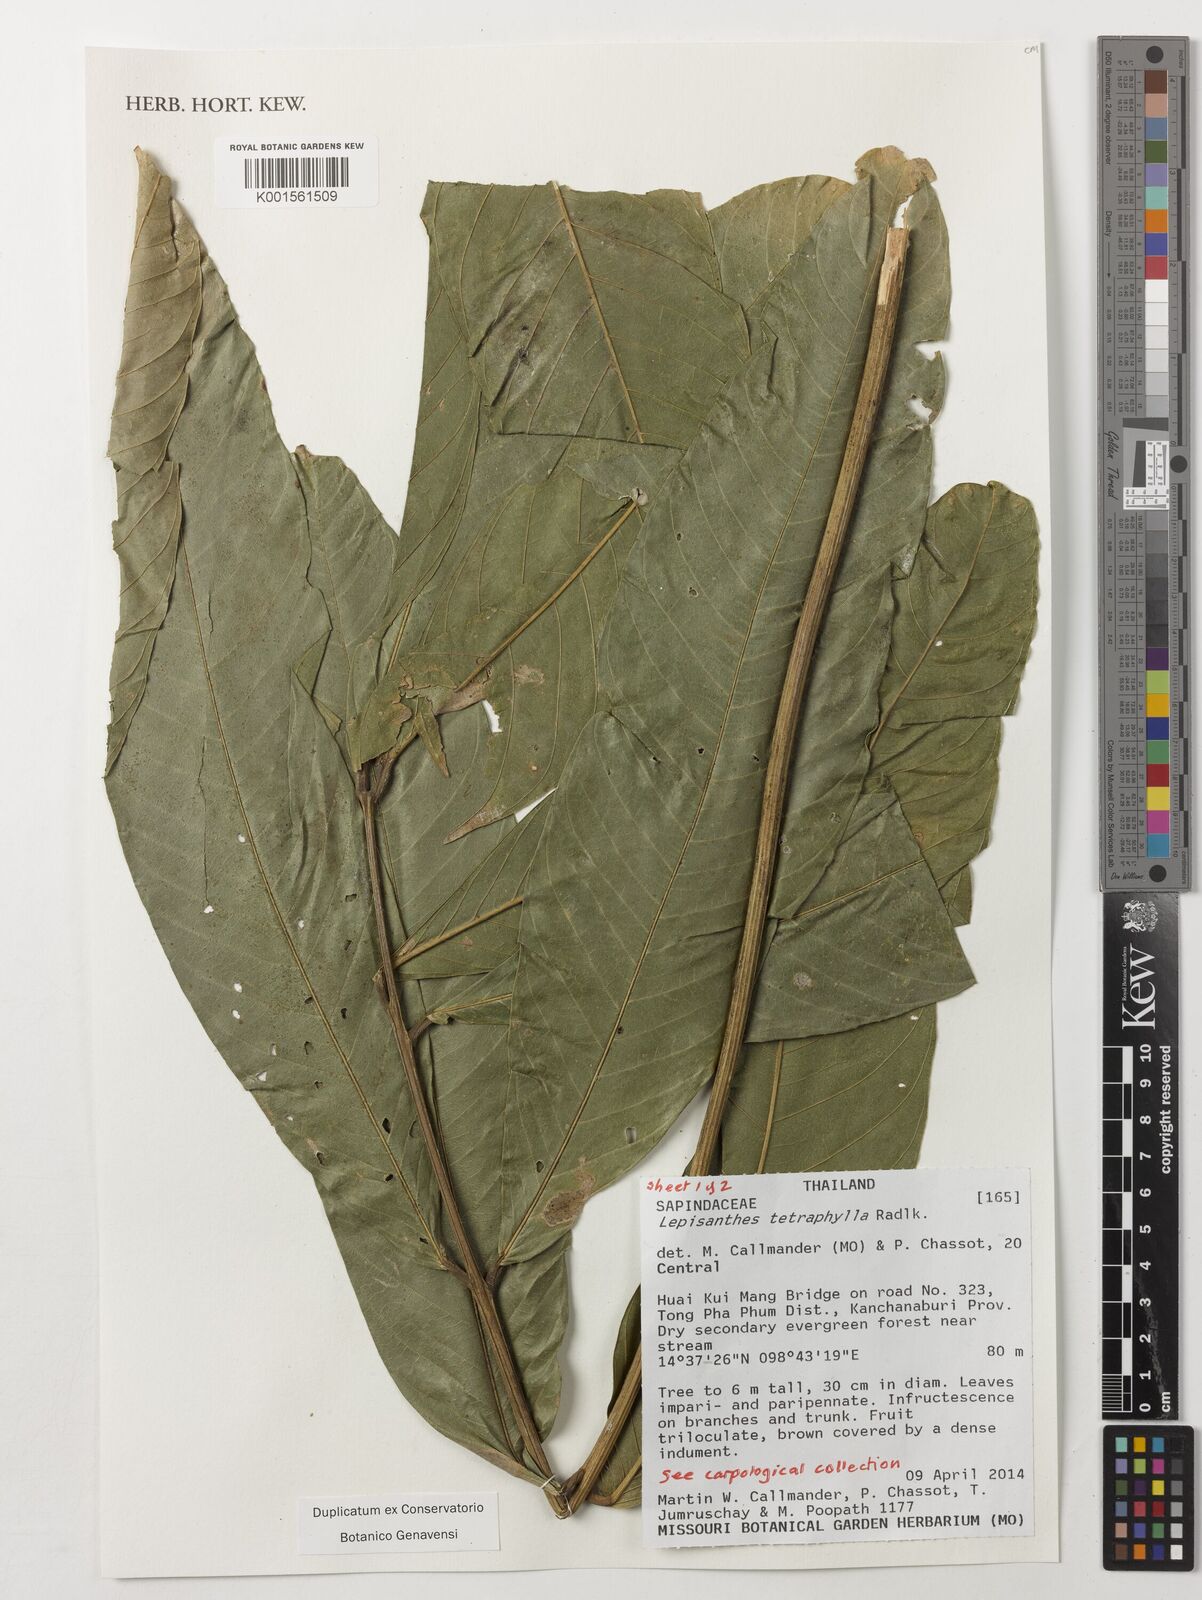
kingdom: Plantae
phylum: Tracheophyta
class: Magnoliopsida
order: Sapindales
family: Sapindaceae
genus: Lepisanthes
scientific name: Lepisanthes tetraphylla
